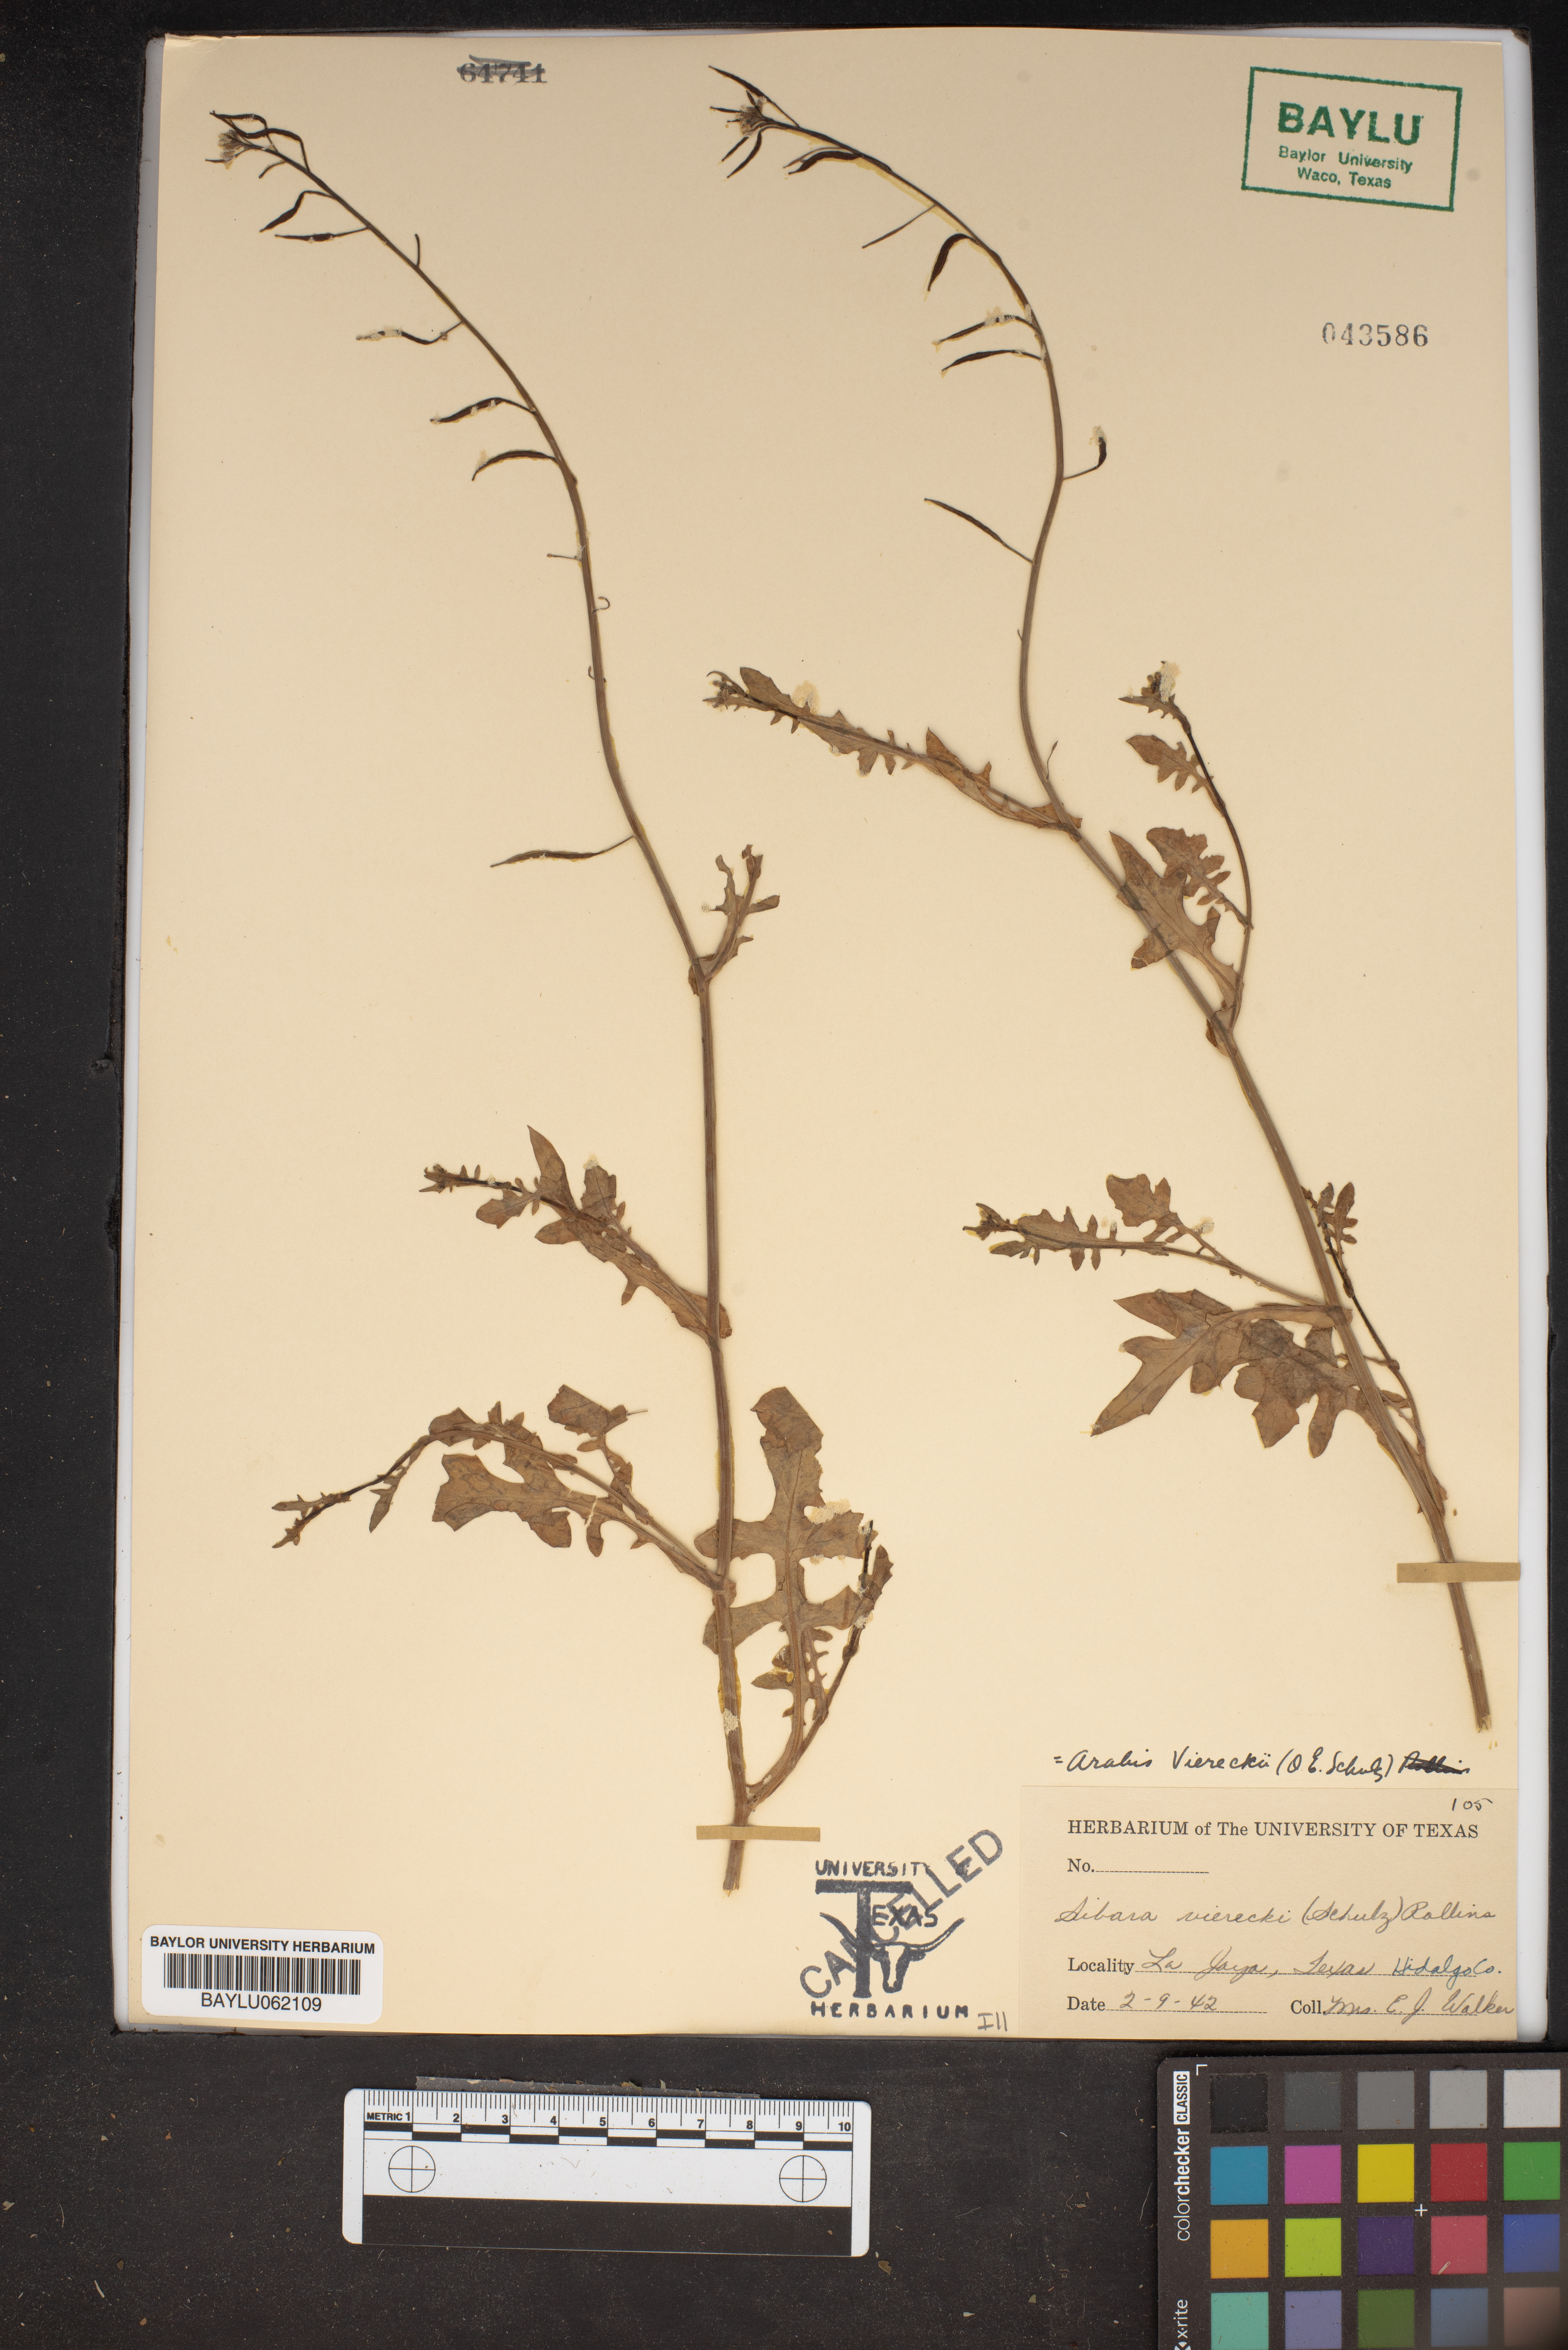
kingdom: Plantae
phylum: Tracheophyta
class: Magnoliopsida
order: Brassicales
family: Brassicaceae
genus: Phravenia
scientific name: Phravenia viereckii
